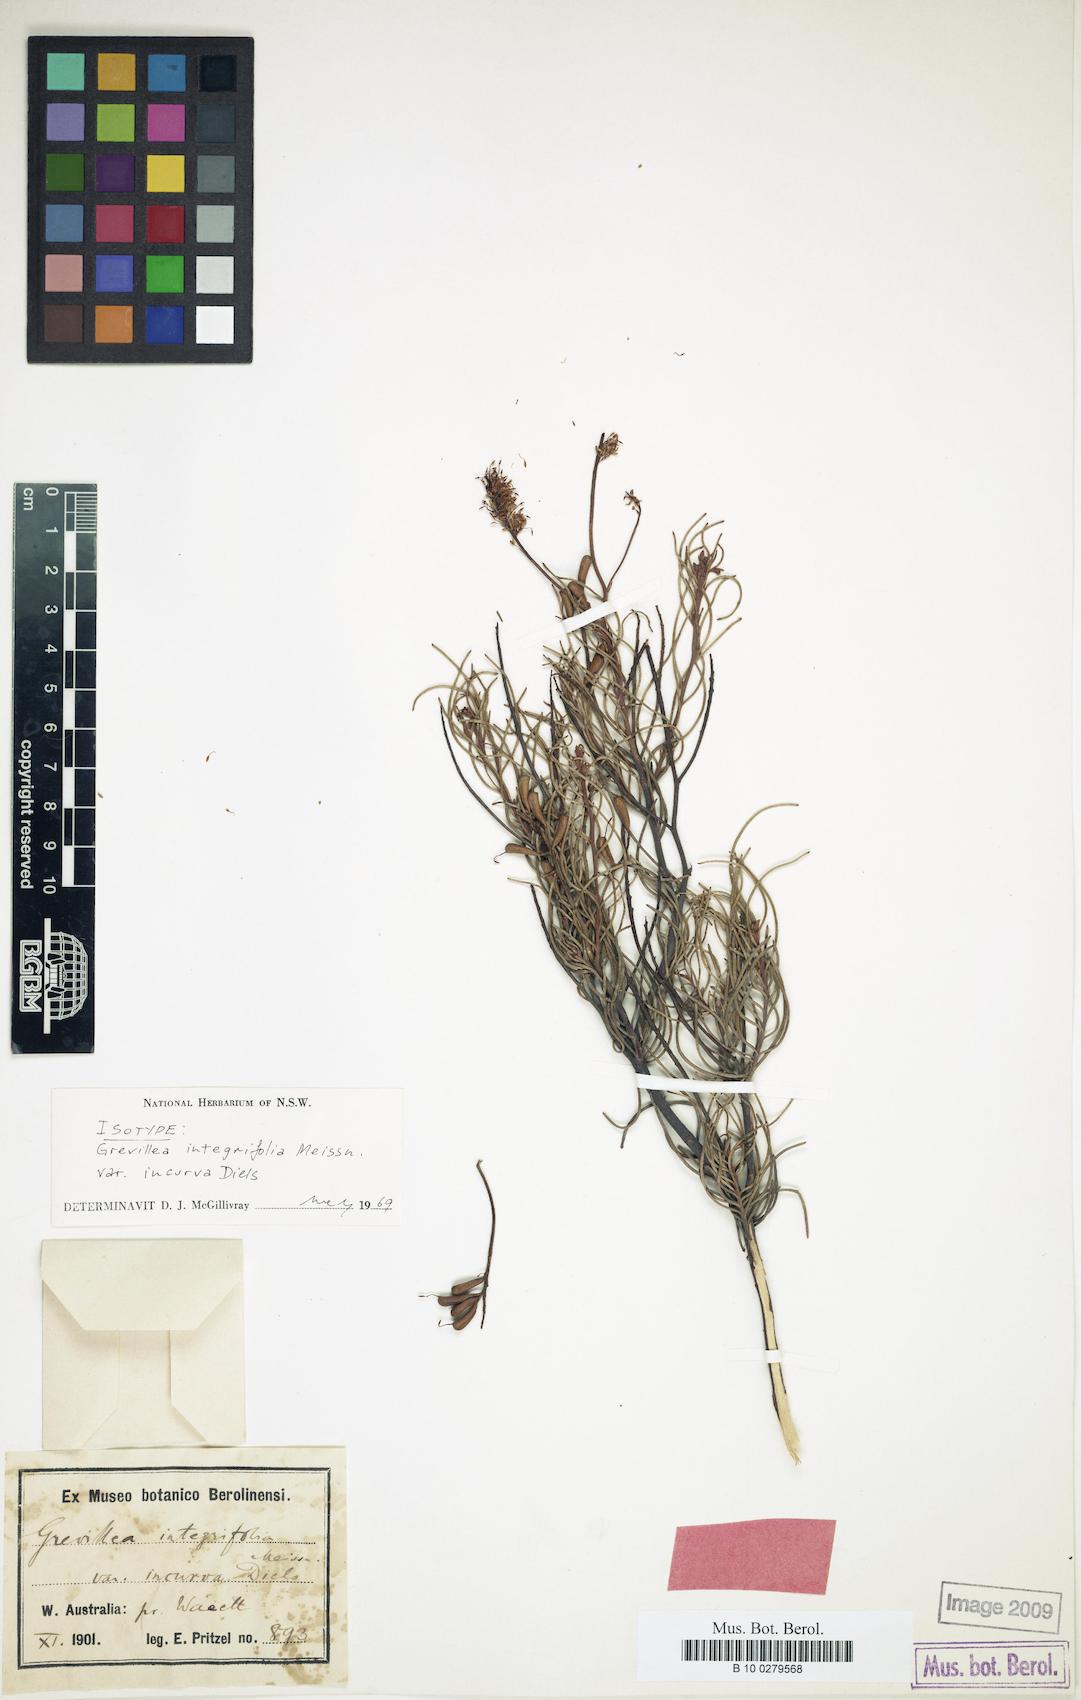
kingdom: Plantae
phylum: Tracheophyta
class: Magnoliopsida
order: Proteales
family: Proteaceae
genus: Grevillea
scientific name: Grevillea incurva
